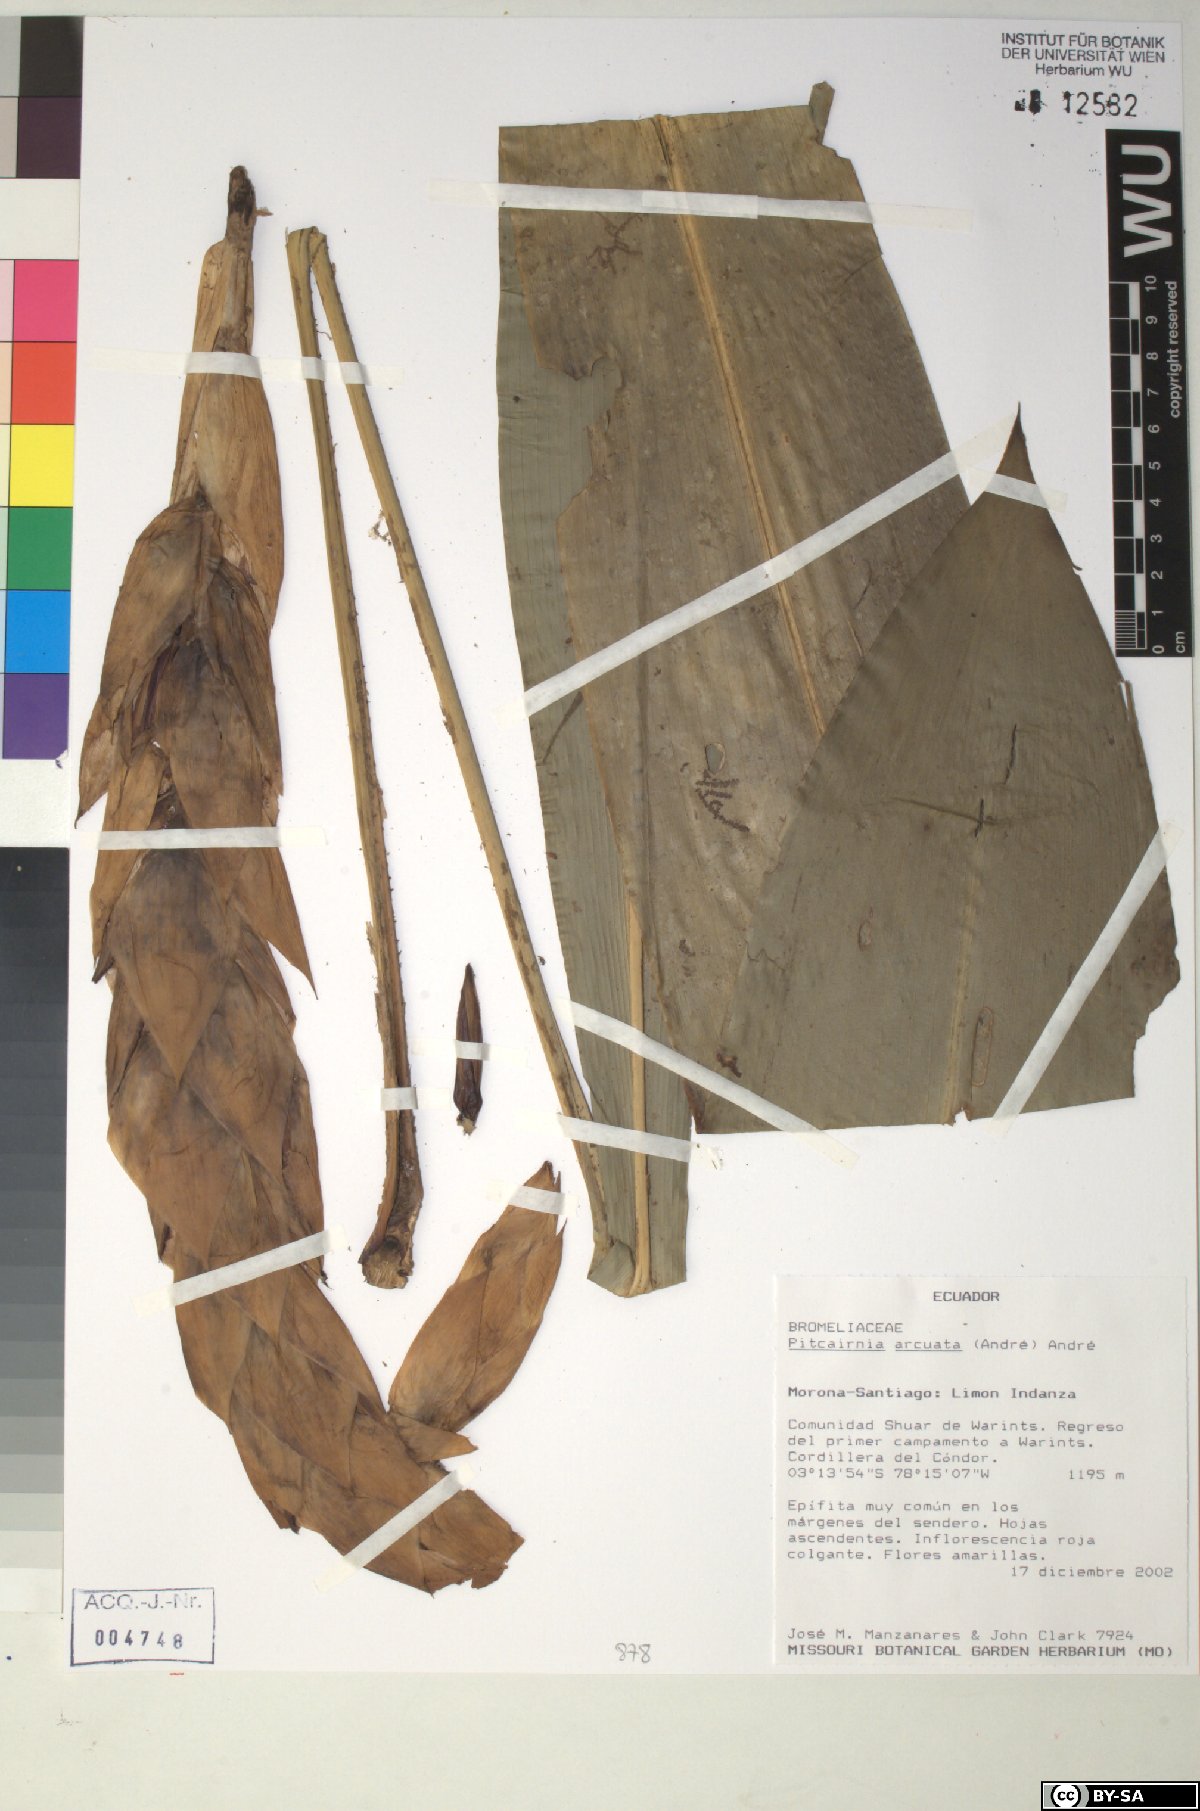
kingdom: Plantae
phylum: Tracheophyta
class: Liliopsida
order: Poales
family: Bromeliaceae
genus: Pitcairnia
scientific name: Pitcairnia arcuata
